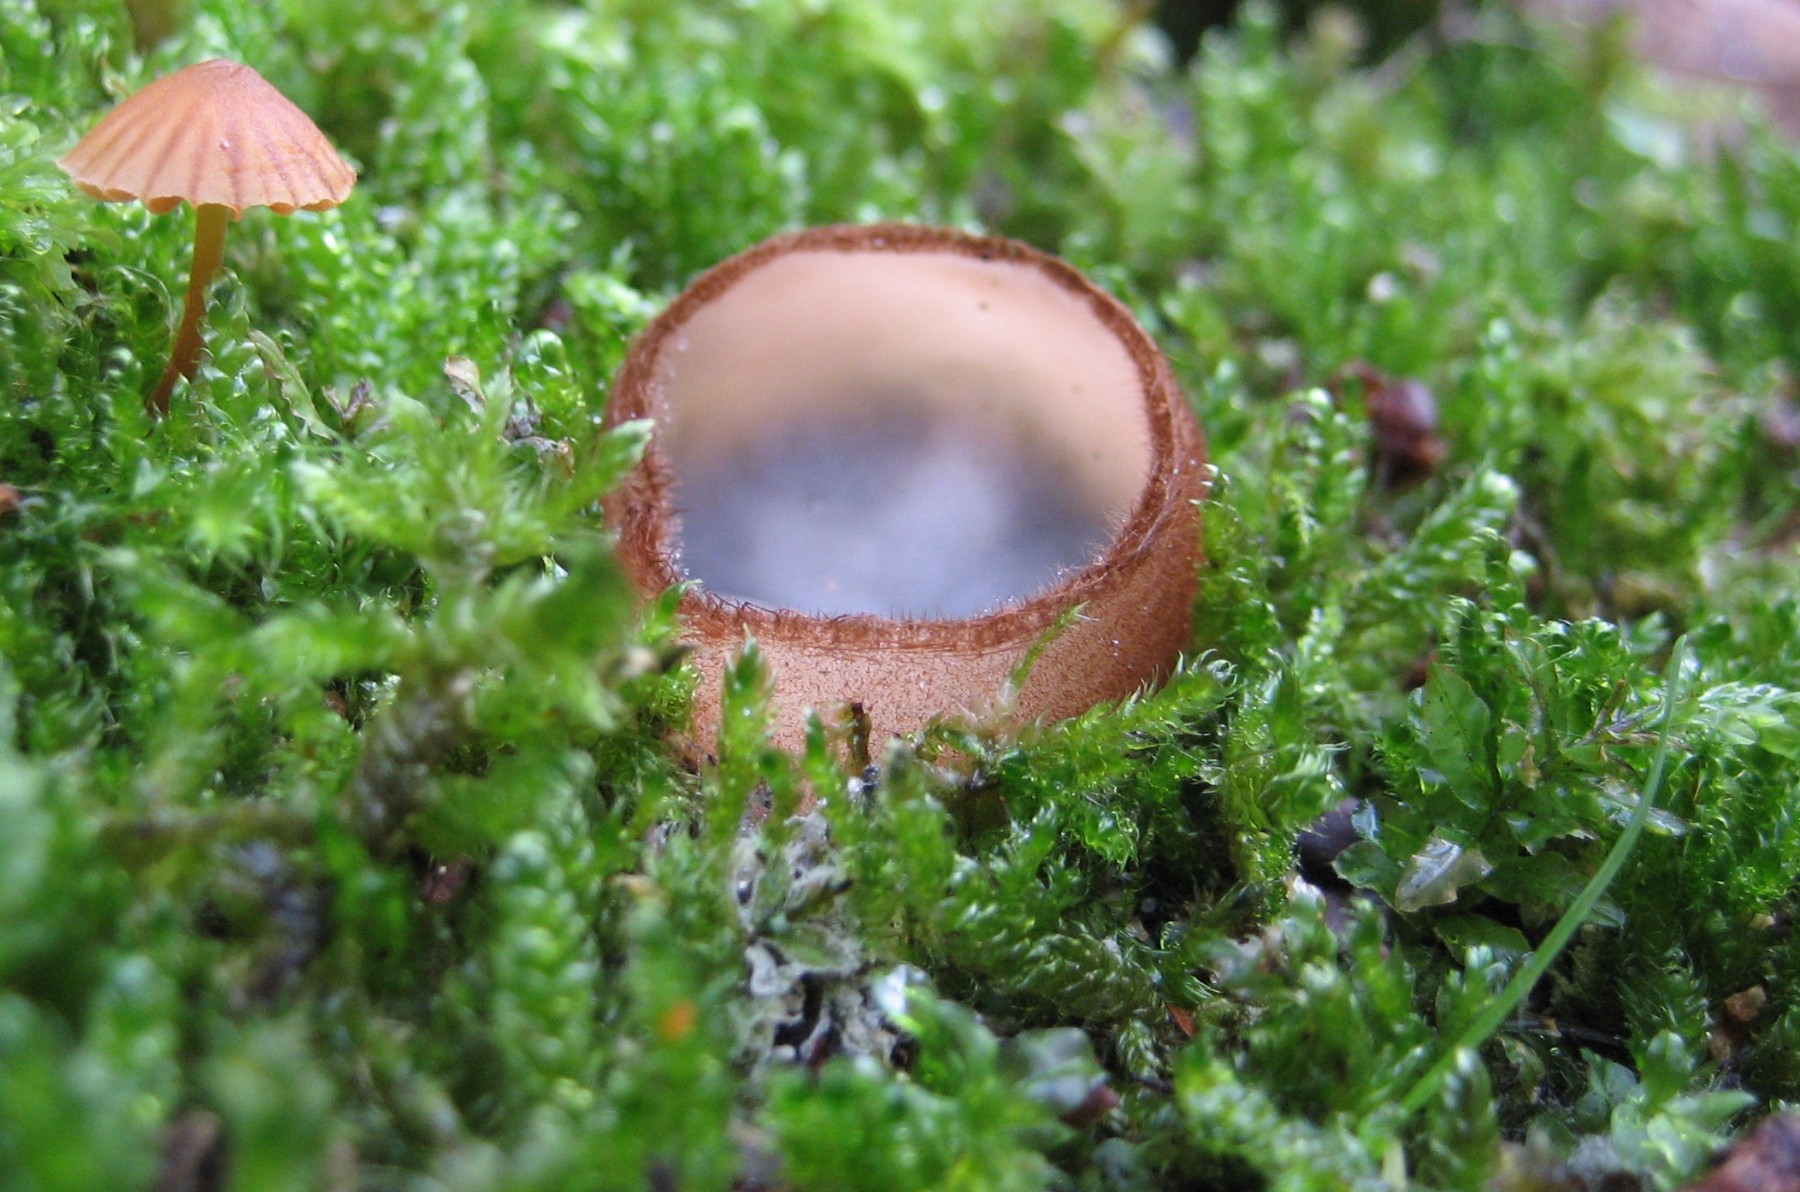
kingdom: Fungi
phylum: Ascomycota
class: Pezizomycetes
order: Pezizales
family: Pyronemataceae
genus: Humaria
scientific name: Humaria hemisphaerica
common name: halvkugleformet børstebæger
